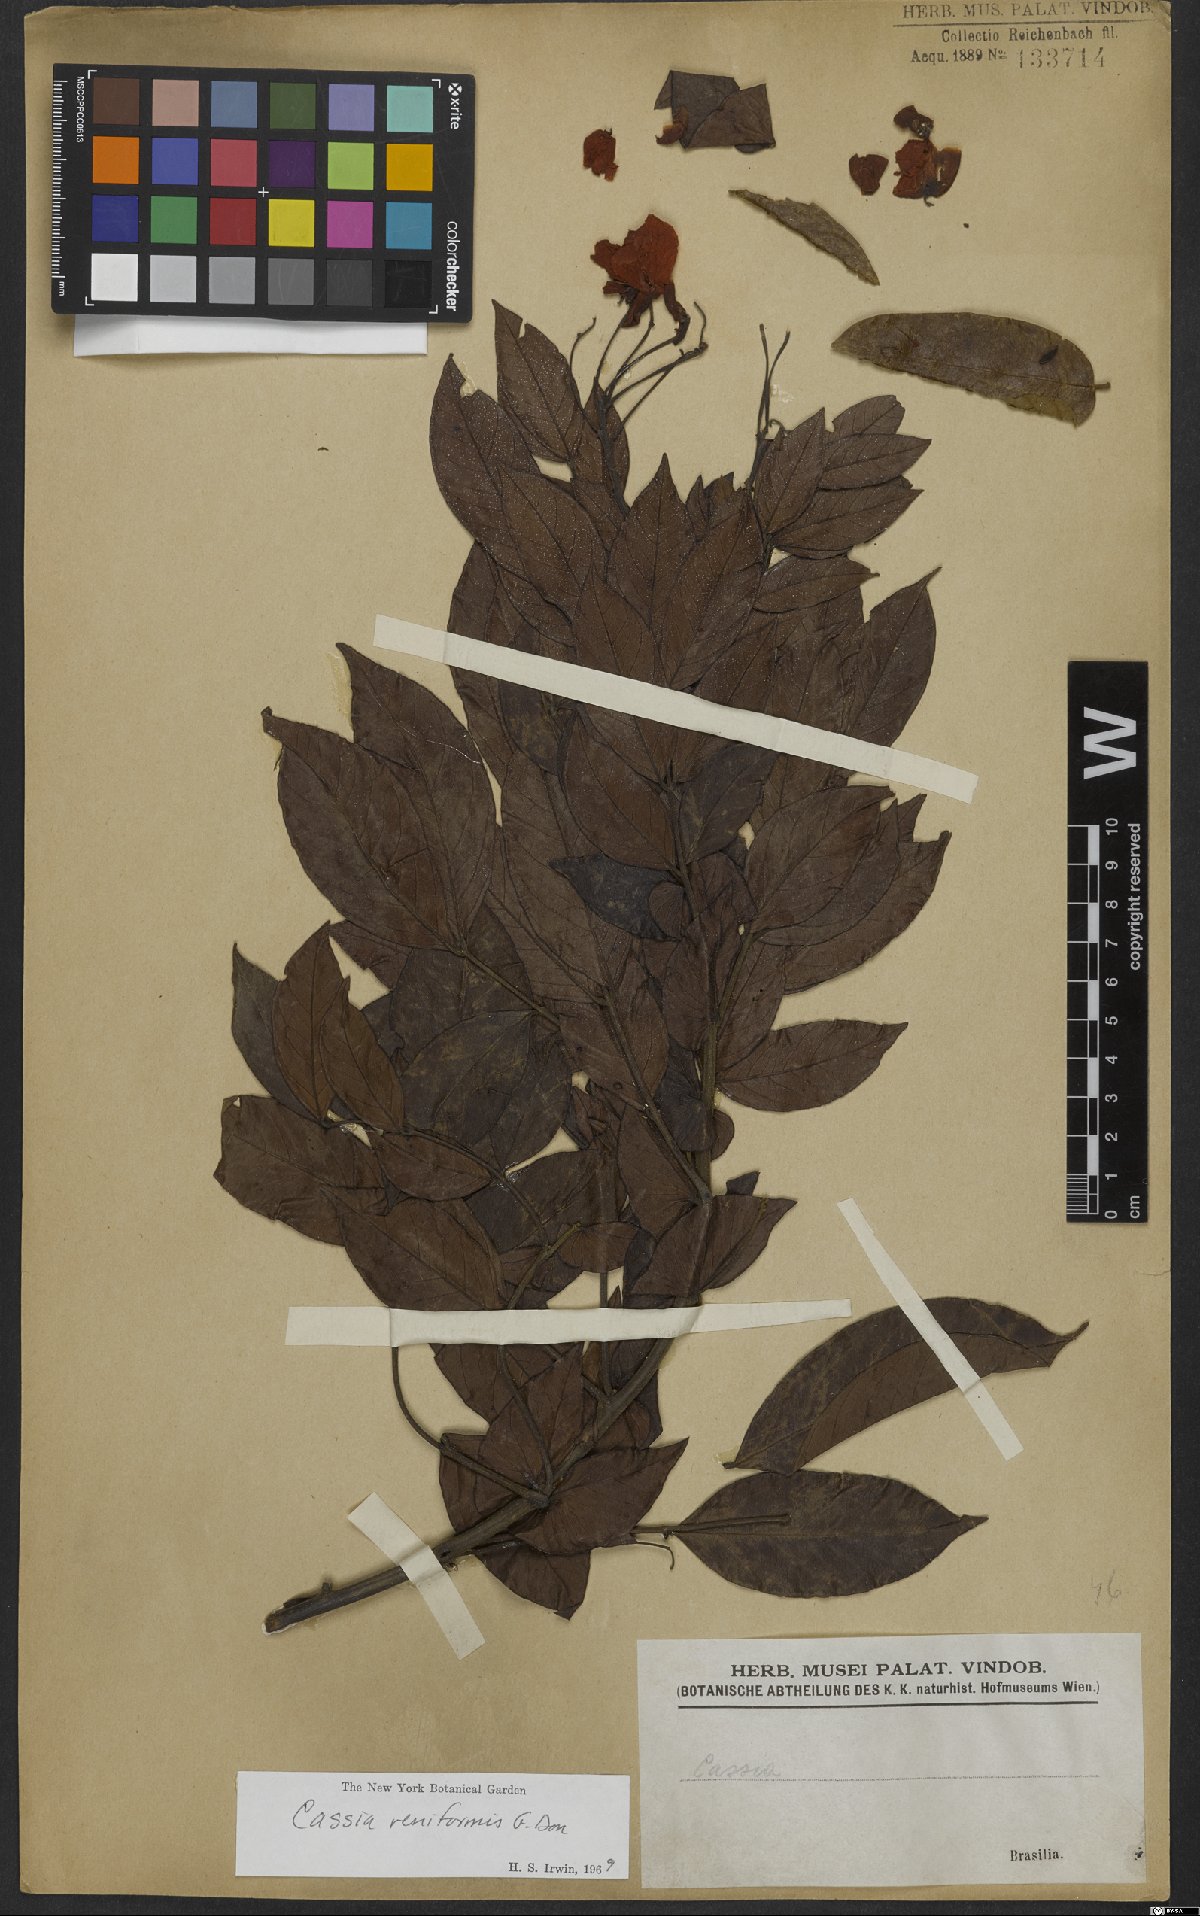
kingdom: Plantae
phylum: Tracheophyta
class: Magnoliopsida
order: Fabales
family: Fabaceae
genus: Senna
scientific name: Senna reniformis
